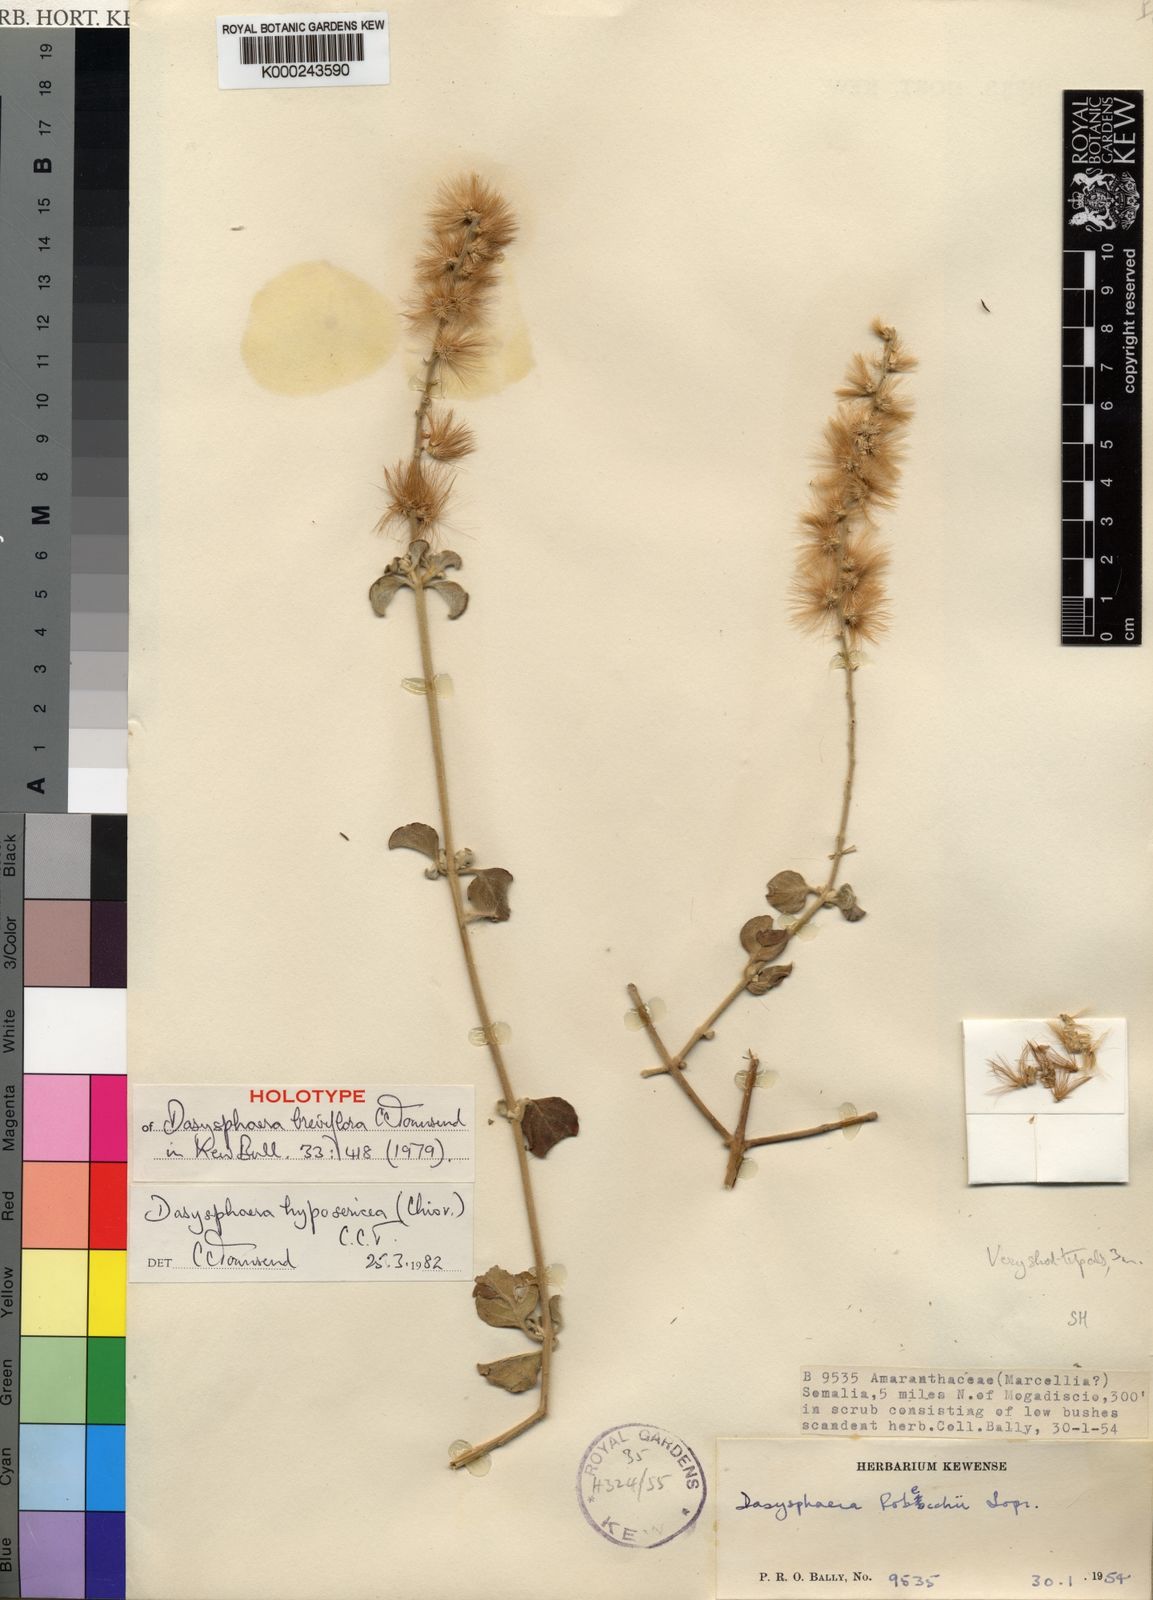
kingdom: Plantae
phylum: Tracheophyta
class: Magnoliopsida
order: Caryophyllales
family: Amaranthaceae
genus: Dasysphaera
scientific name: Dasysphaera hyposericea
